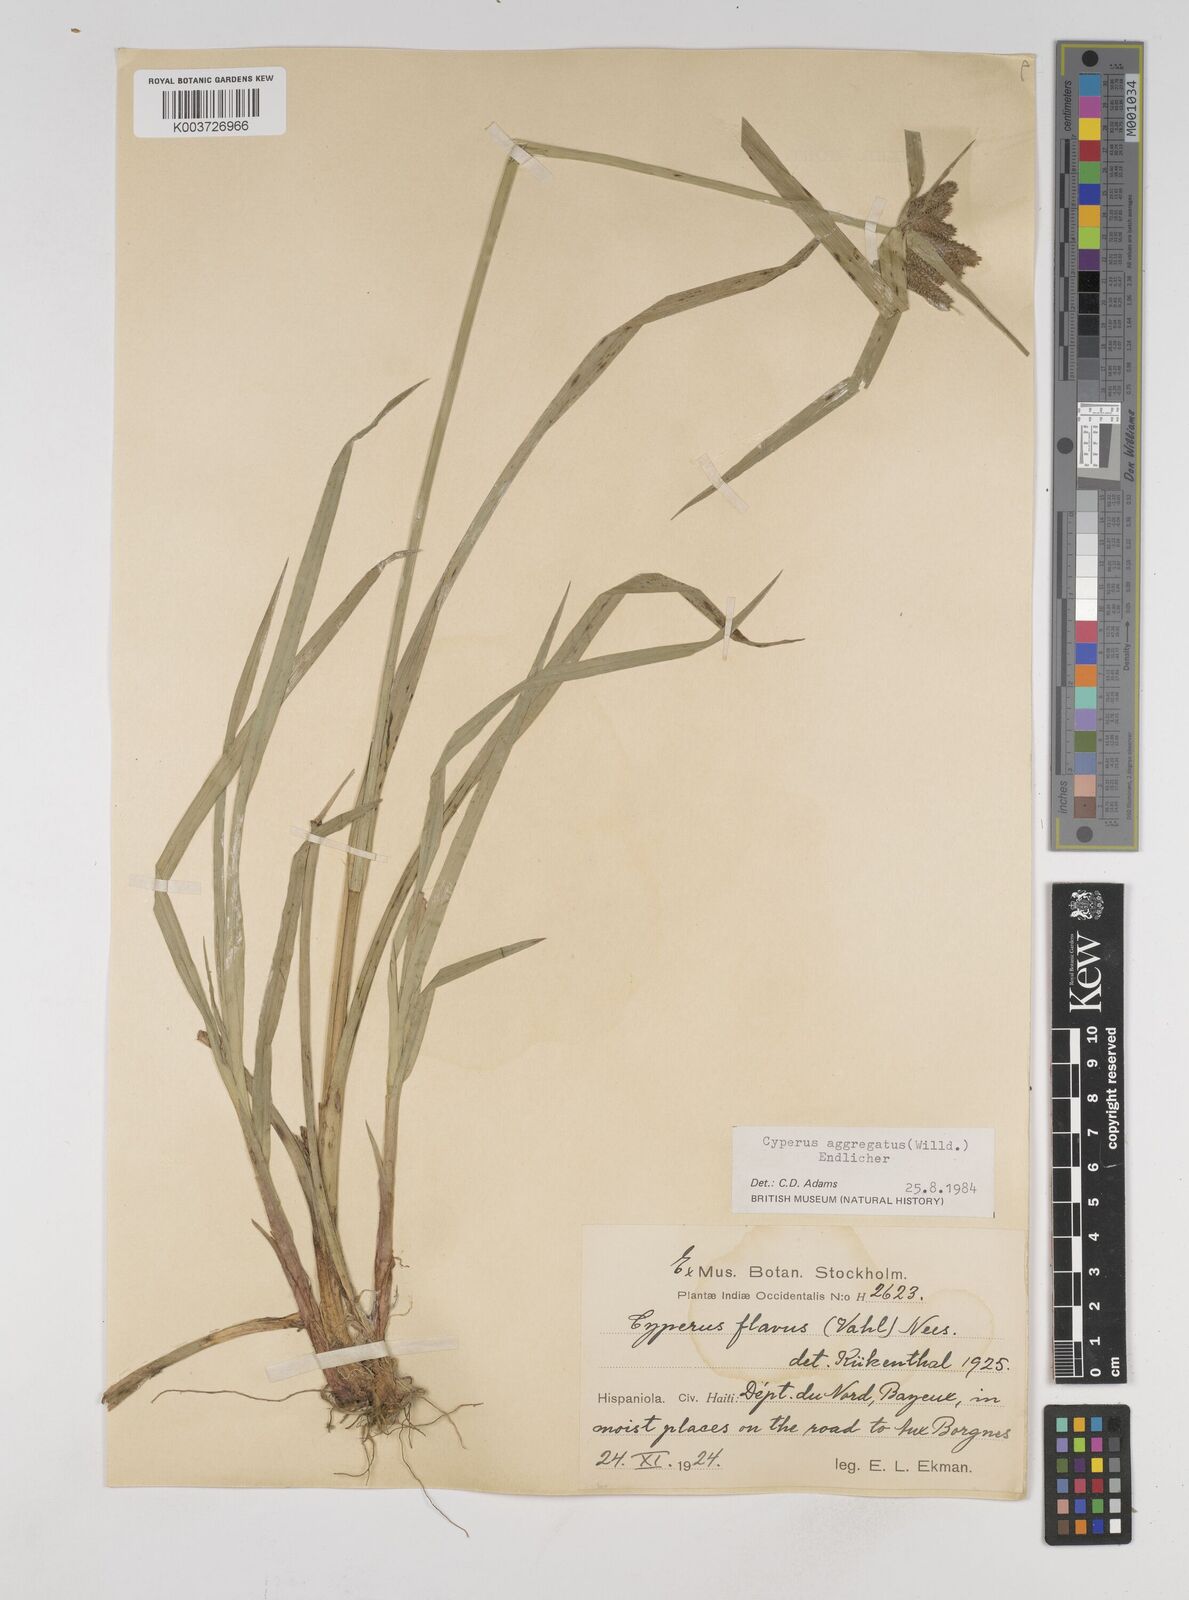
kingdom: Plantae
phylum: Tracheophyta
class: Liliopsida
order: Poales
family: Cyperaceae
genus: Cyperus
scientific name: Cyperus aggregatus
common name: Inflatedscale flatsedge
